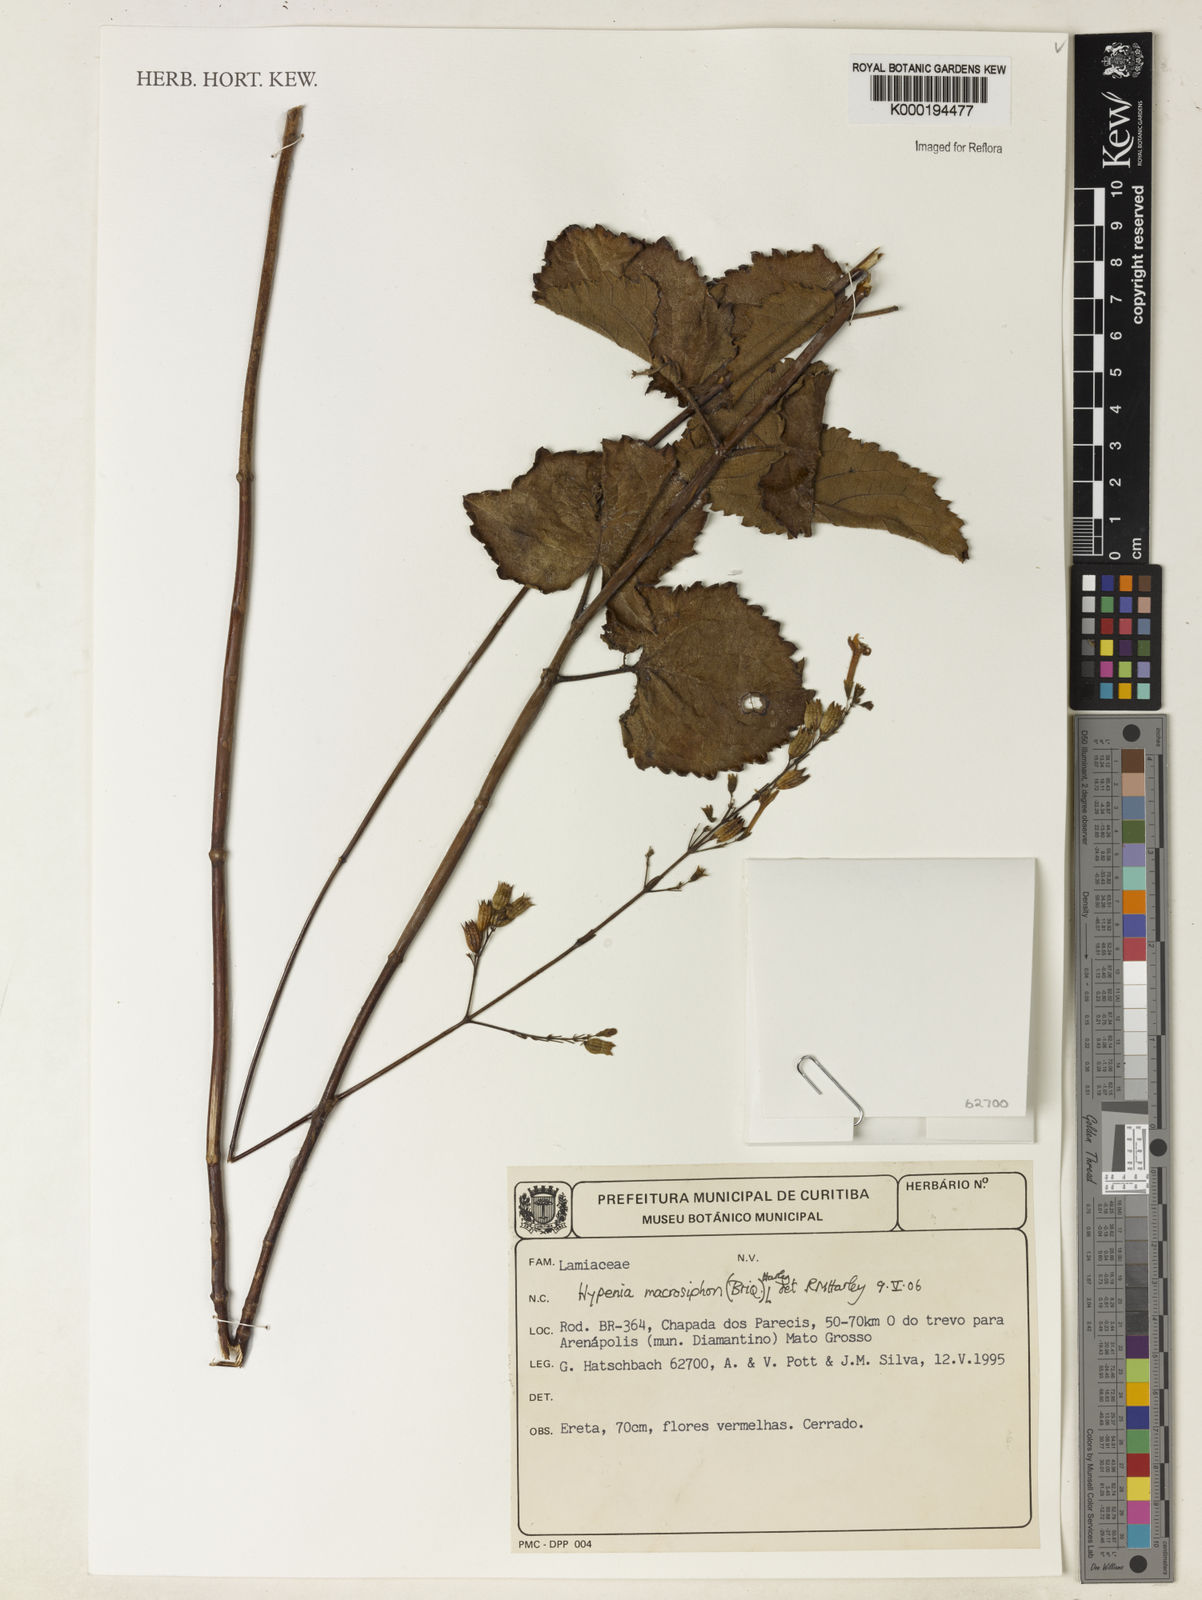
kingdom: Plantae
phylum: Tracheophyta
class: Magnoliopsida
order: Lamiales
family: Lamiaceae
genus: Hypenia
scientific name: Hypenia macrosiphon
